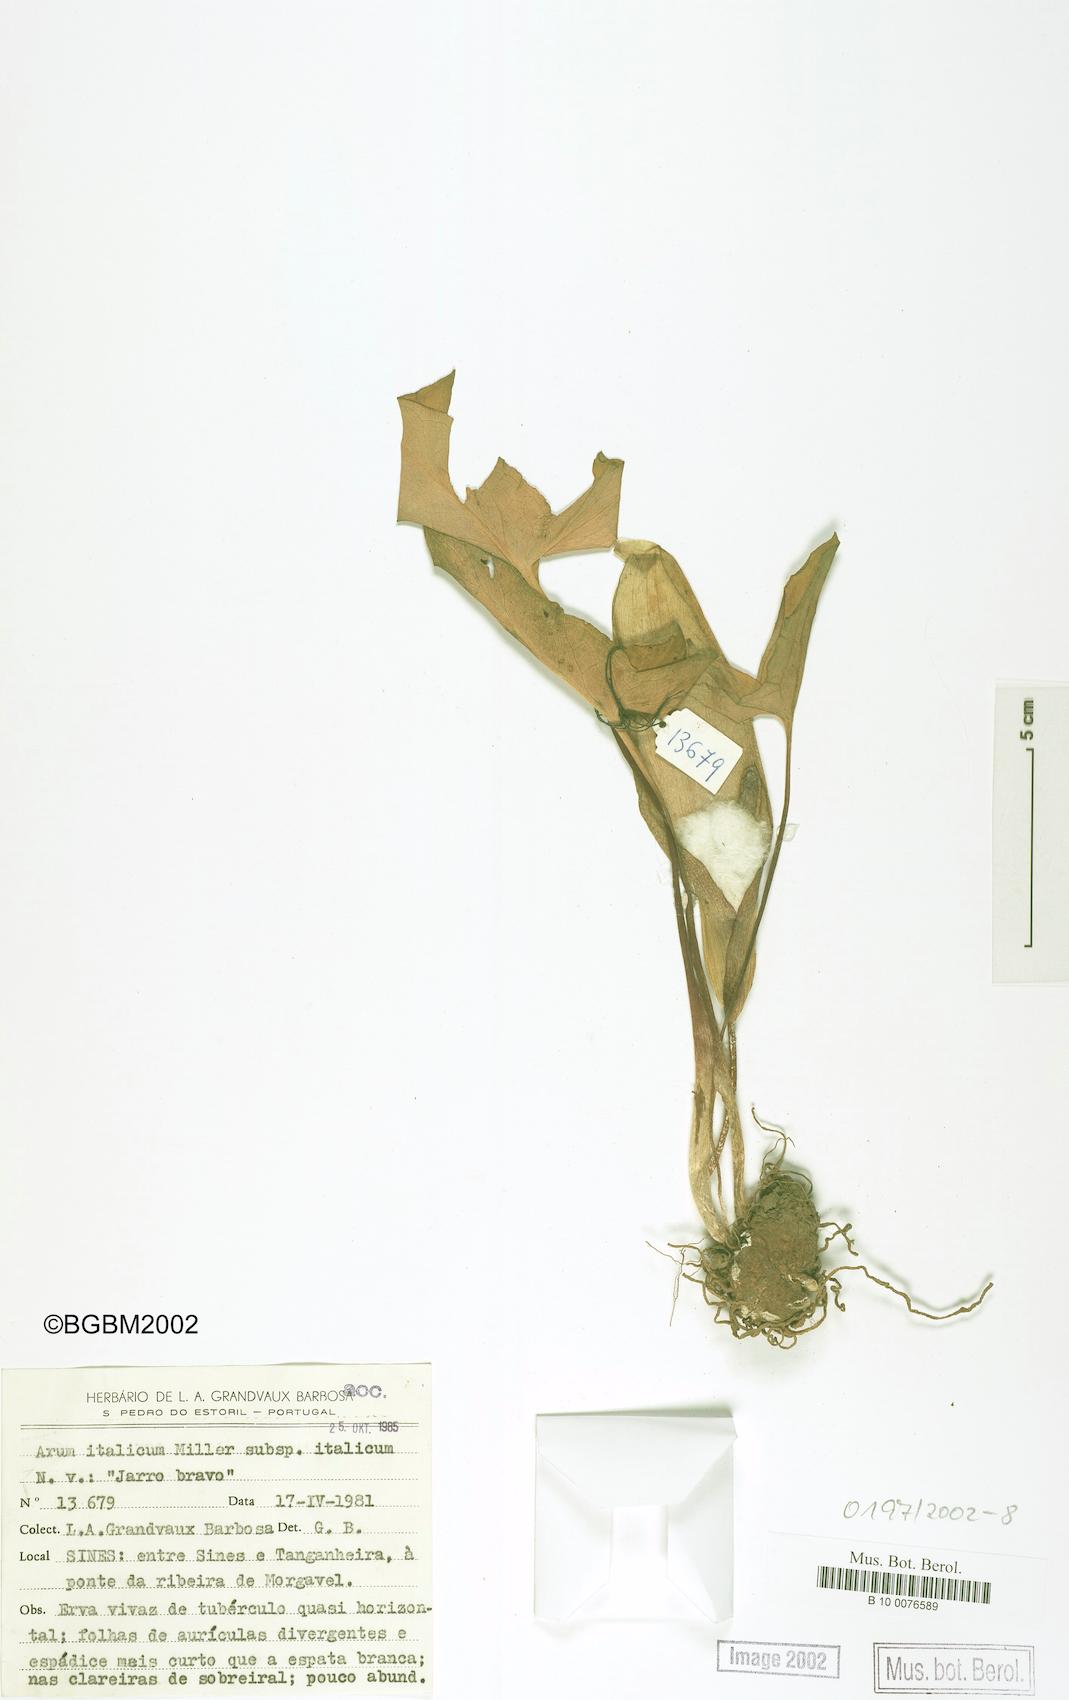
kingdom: Plantae
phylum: Tracheophyta
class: Liliopsida
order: Alismatales
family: Araceae
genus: Arum
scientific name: Arum italicum
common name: Italian lords-and-ladies
